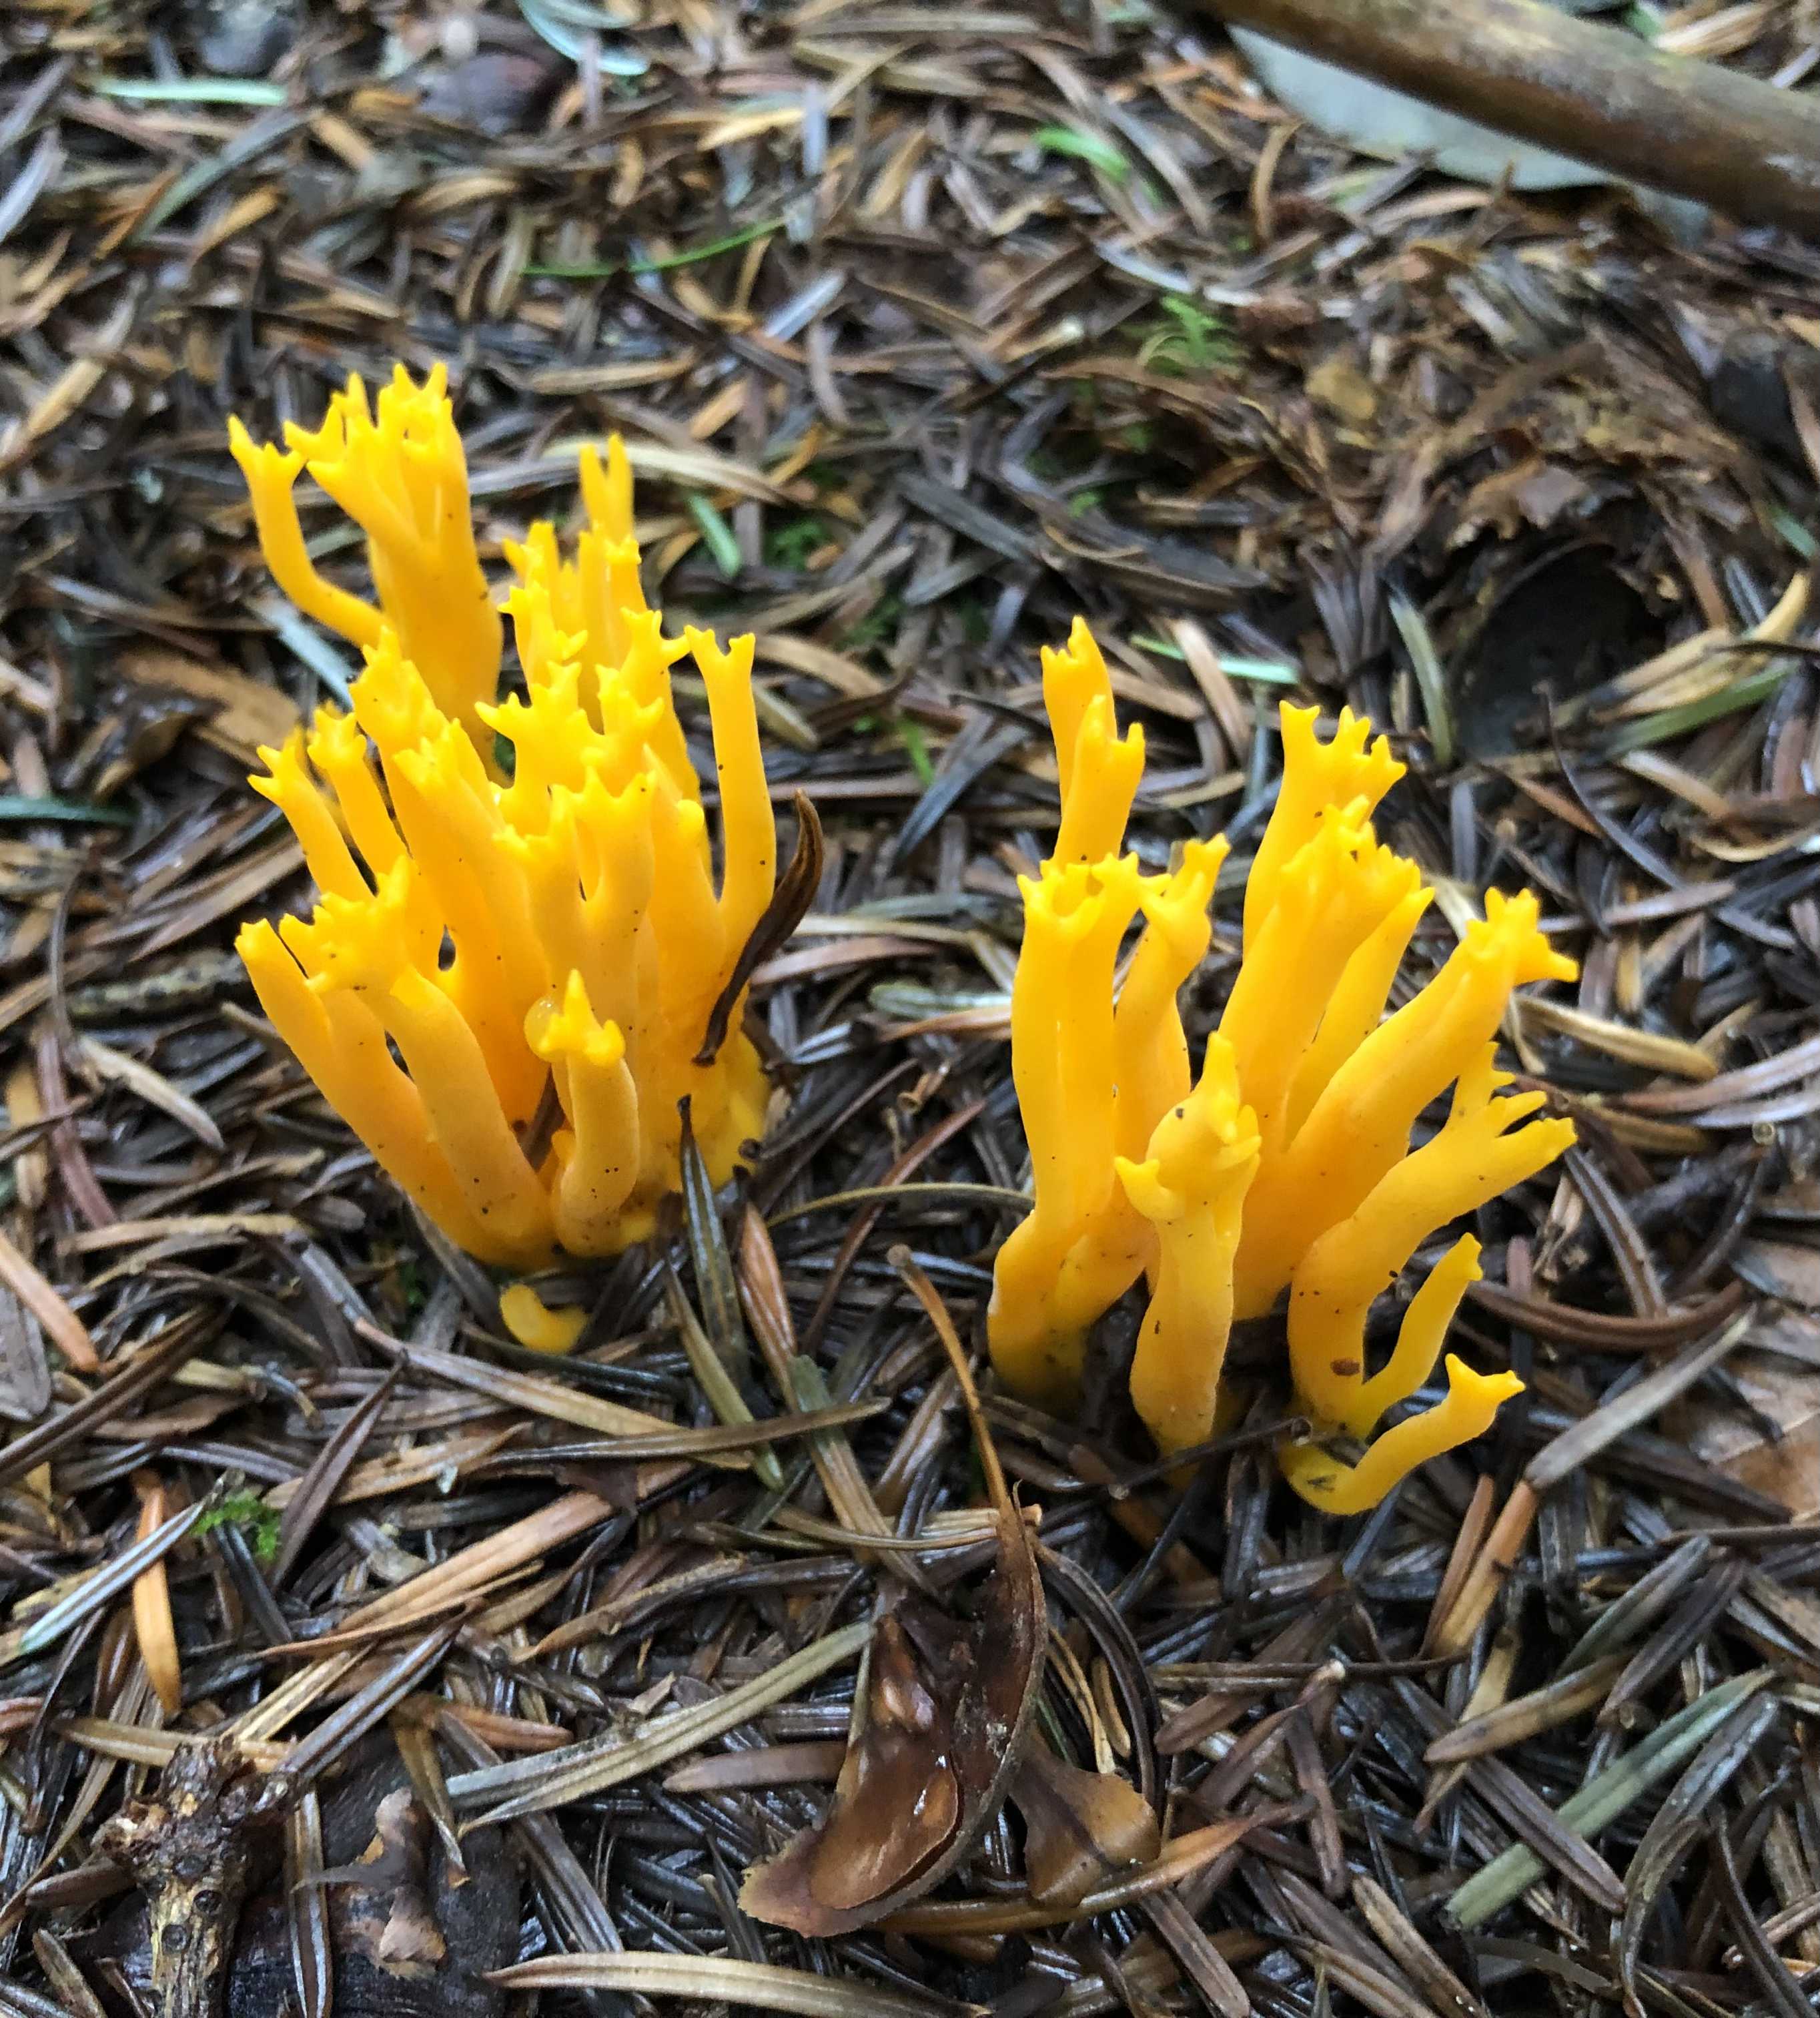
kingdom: Fungi
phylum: Basidiomycota
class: Dacrymycetes
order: Dacrymycetales
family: Dacrymycetaceae
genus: Calocera
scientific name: Calocera viscosa
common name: almindelig guldgaffel
